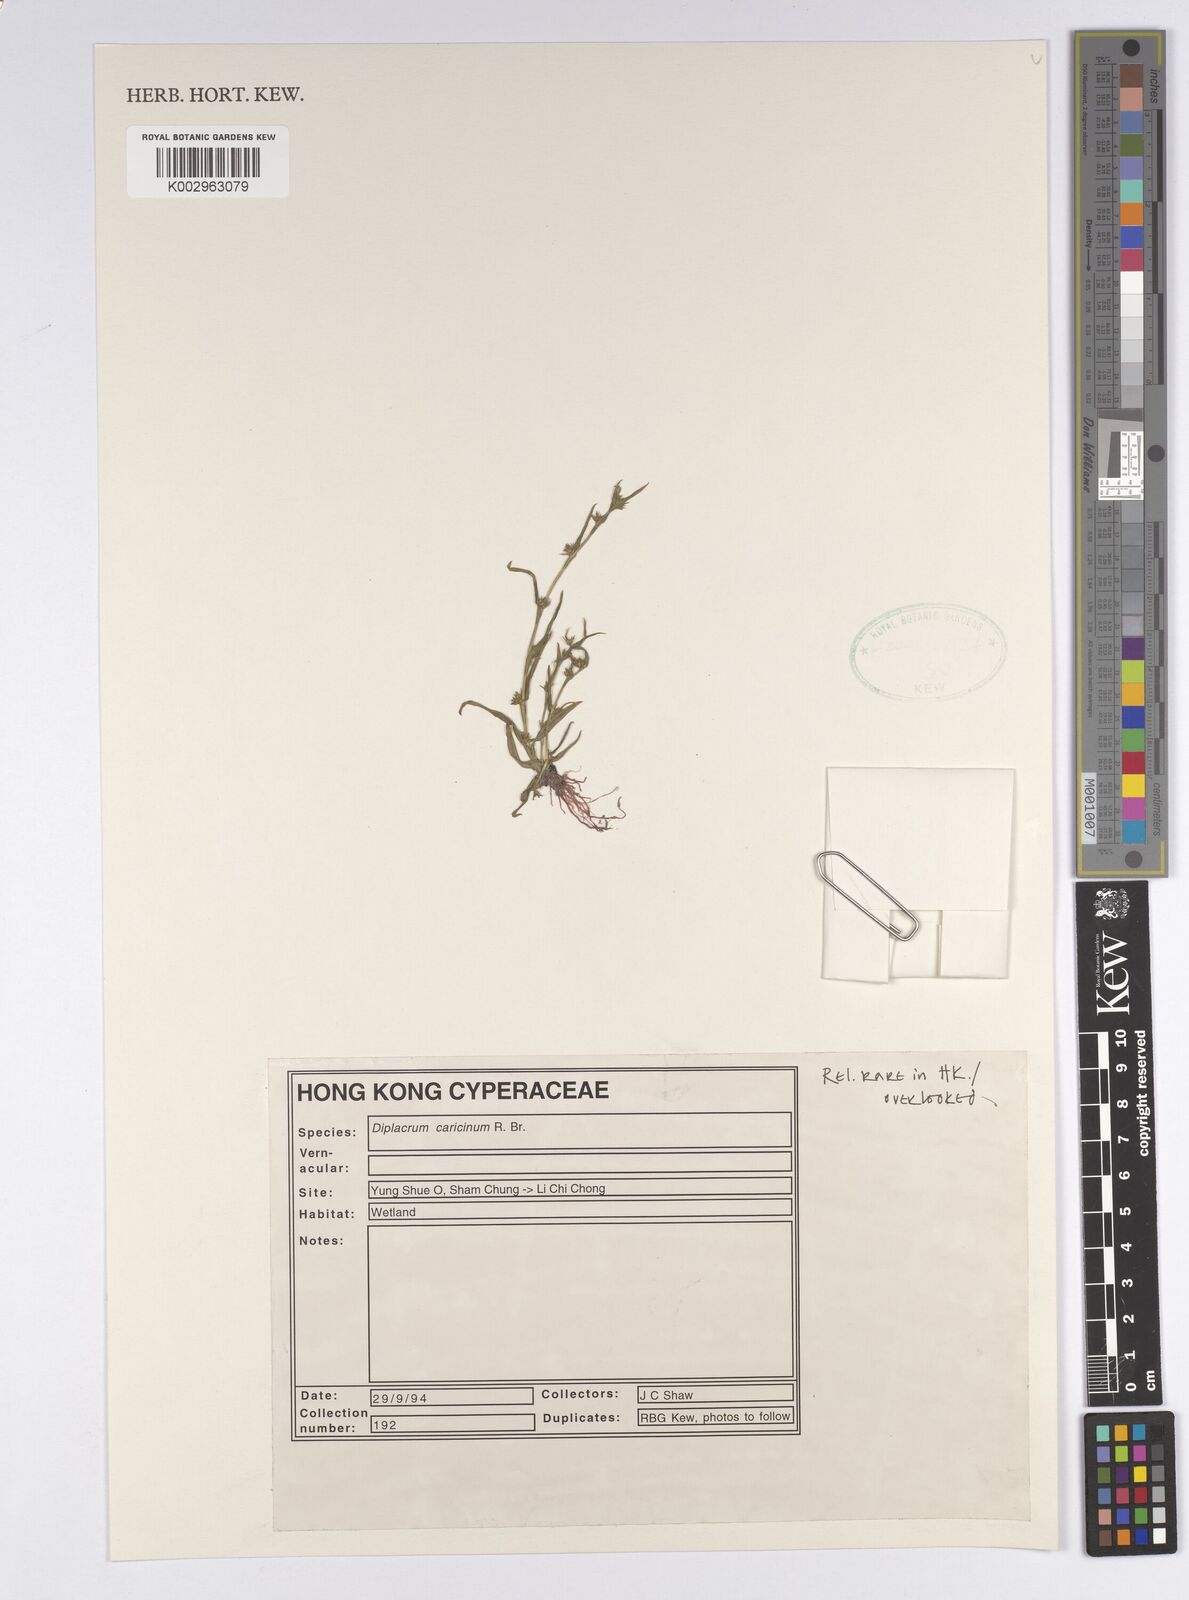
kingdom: Plantae
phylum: Tracheophyta
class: Liliopsida
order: Poales
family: Cyperaceae
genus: Diplacrum
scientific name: Diplacrum caricinum
